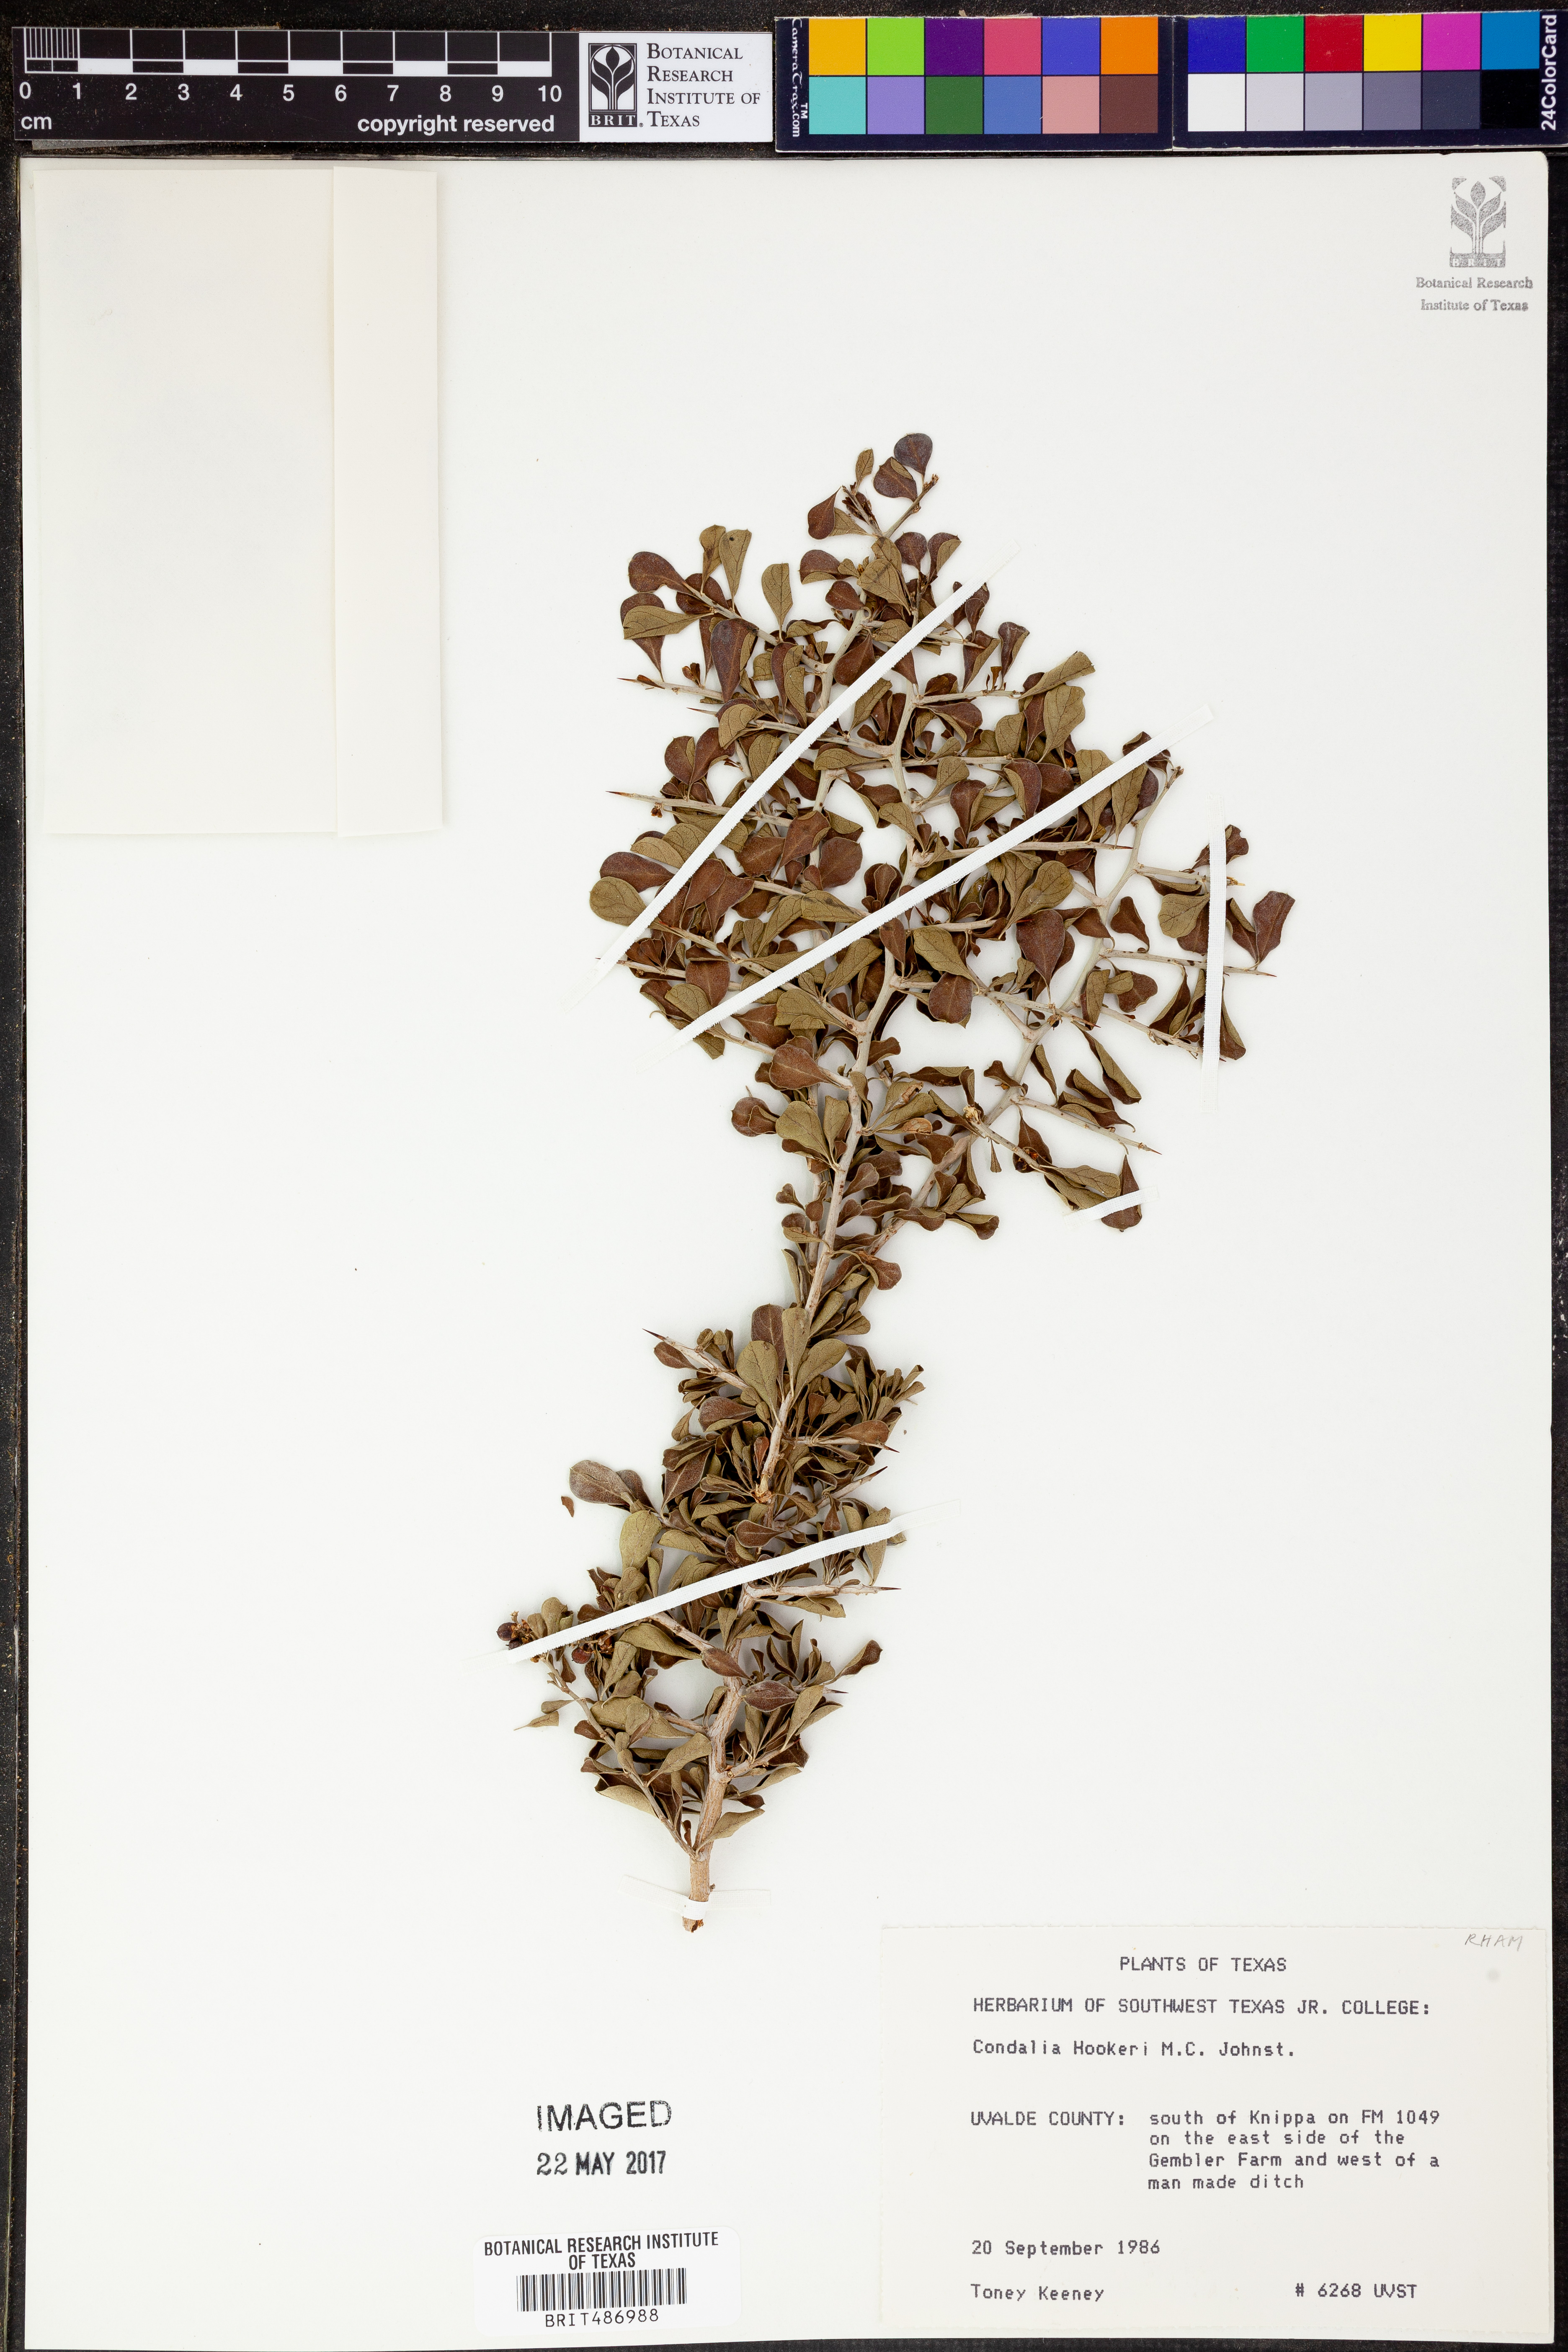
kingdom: Plantae
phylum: Tracheophyta
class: Magnoliopsida
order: Rosales
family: Rhamnaceae
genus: Condalia
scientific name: Condalia hookeri
